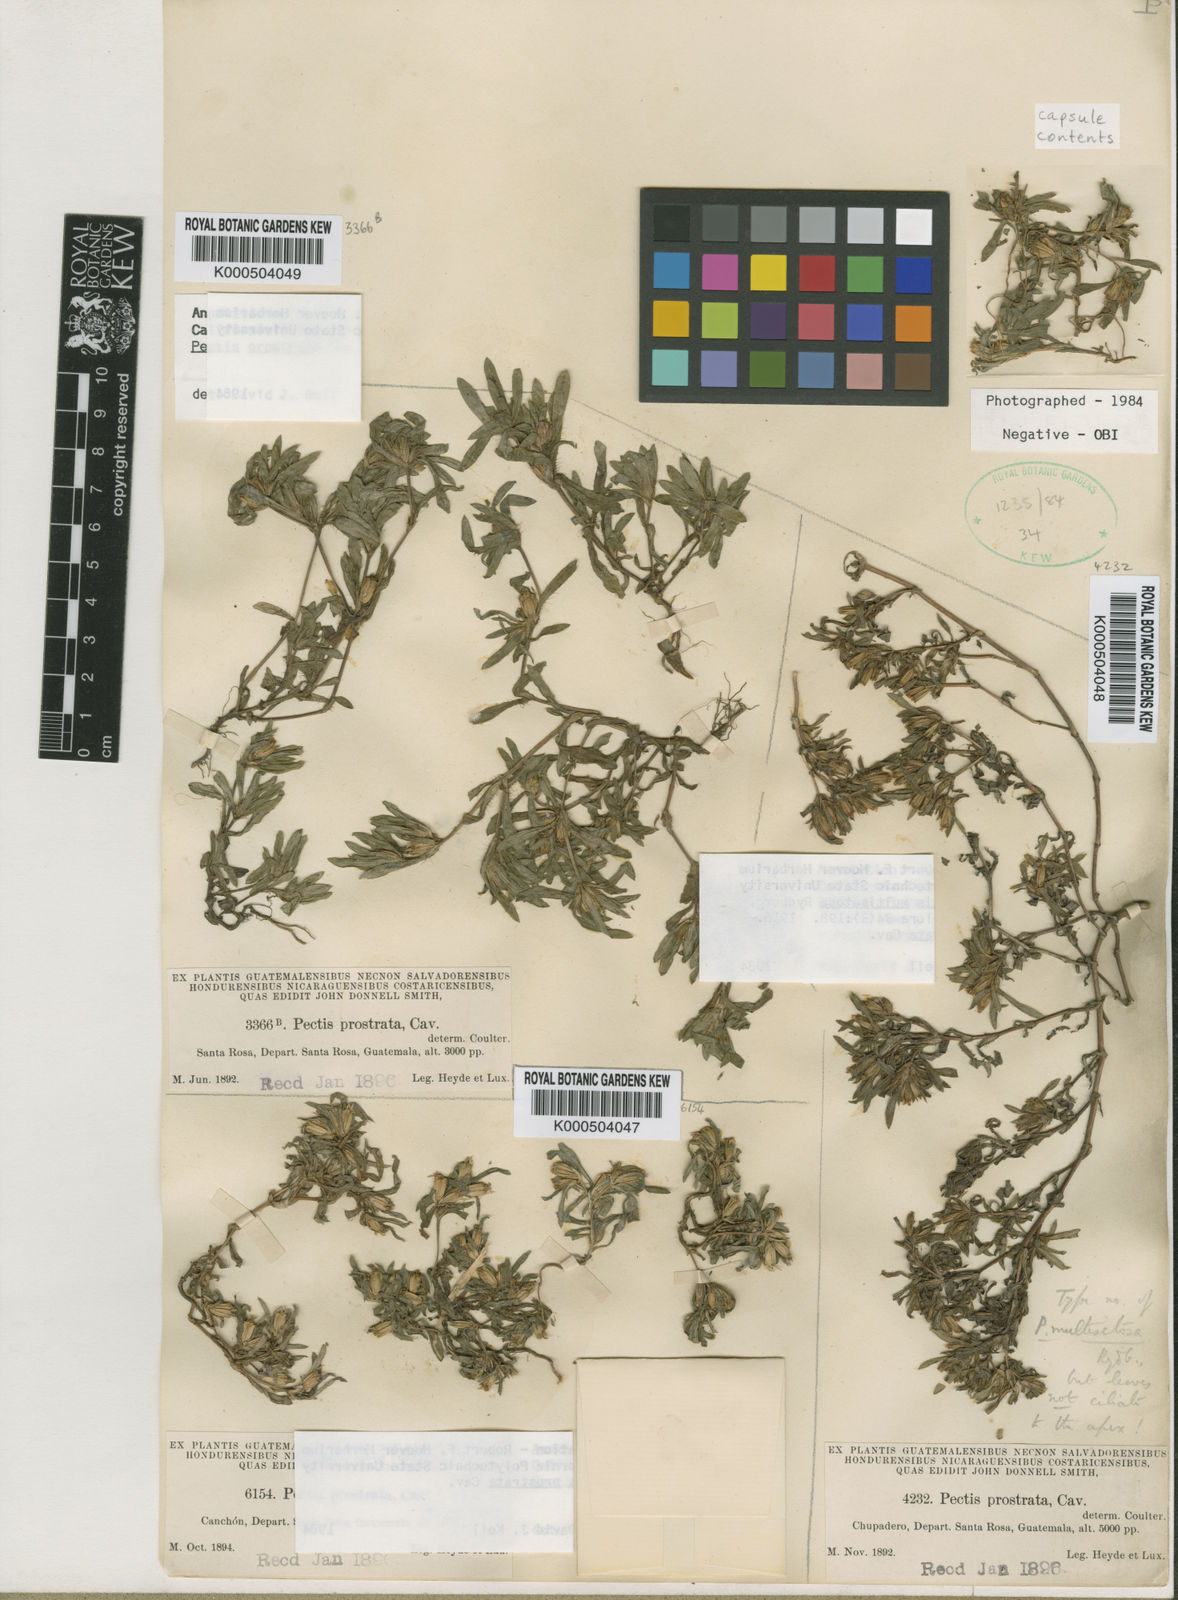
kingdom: Plantae
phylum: Tracheophyta
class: Magnoliopsida
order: Asterales
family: Asteraceae
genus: Pectis
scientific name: Pectis prostrata
